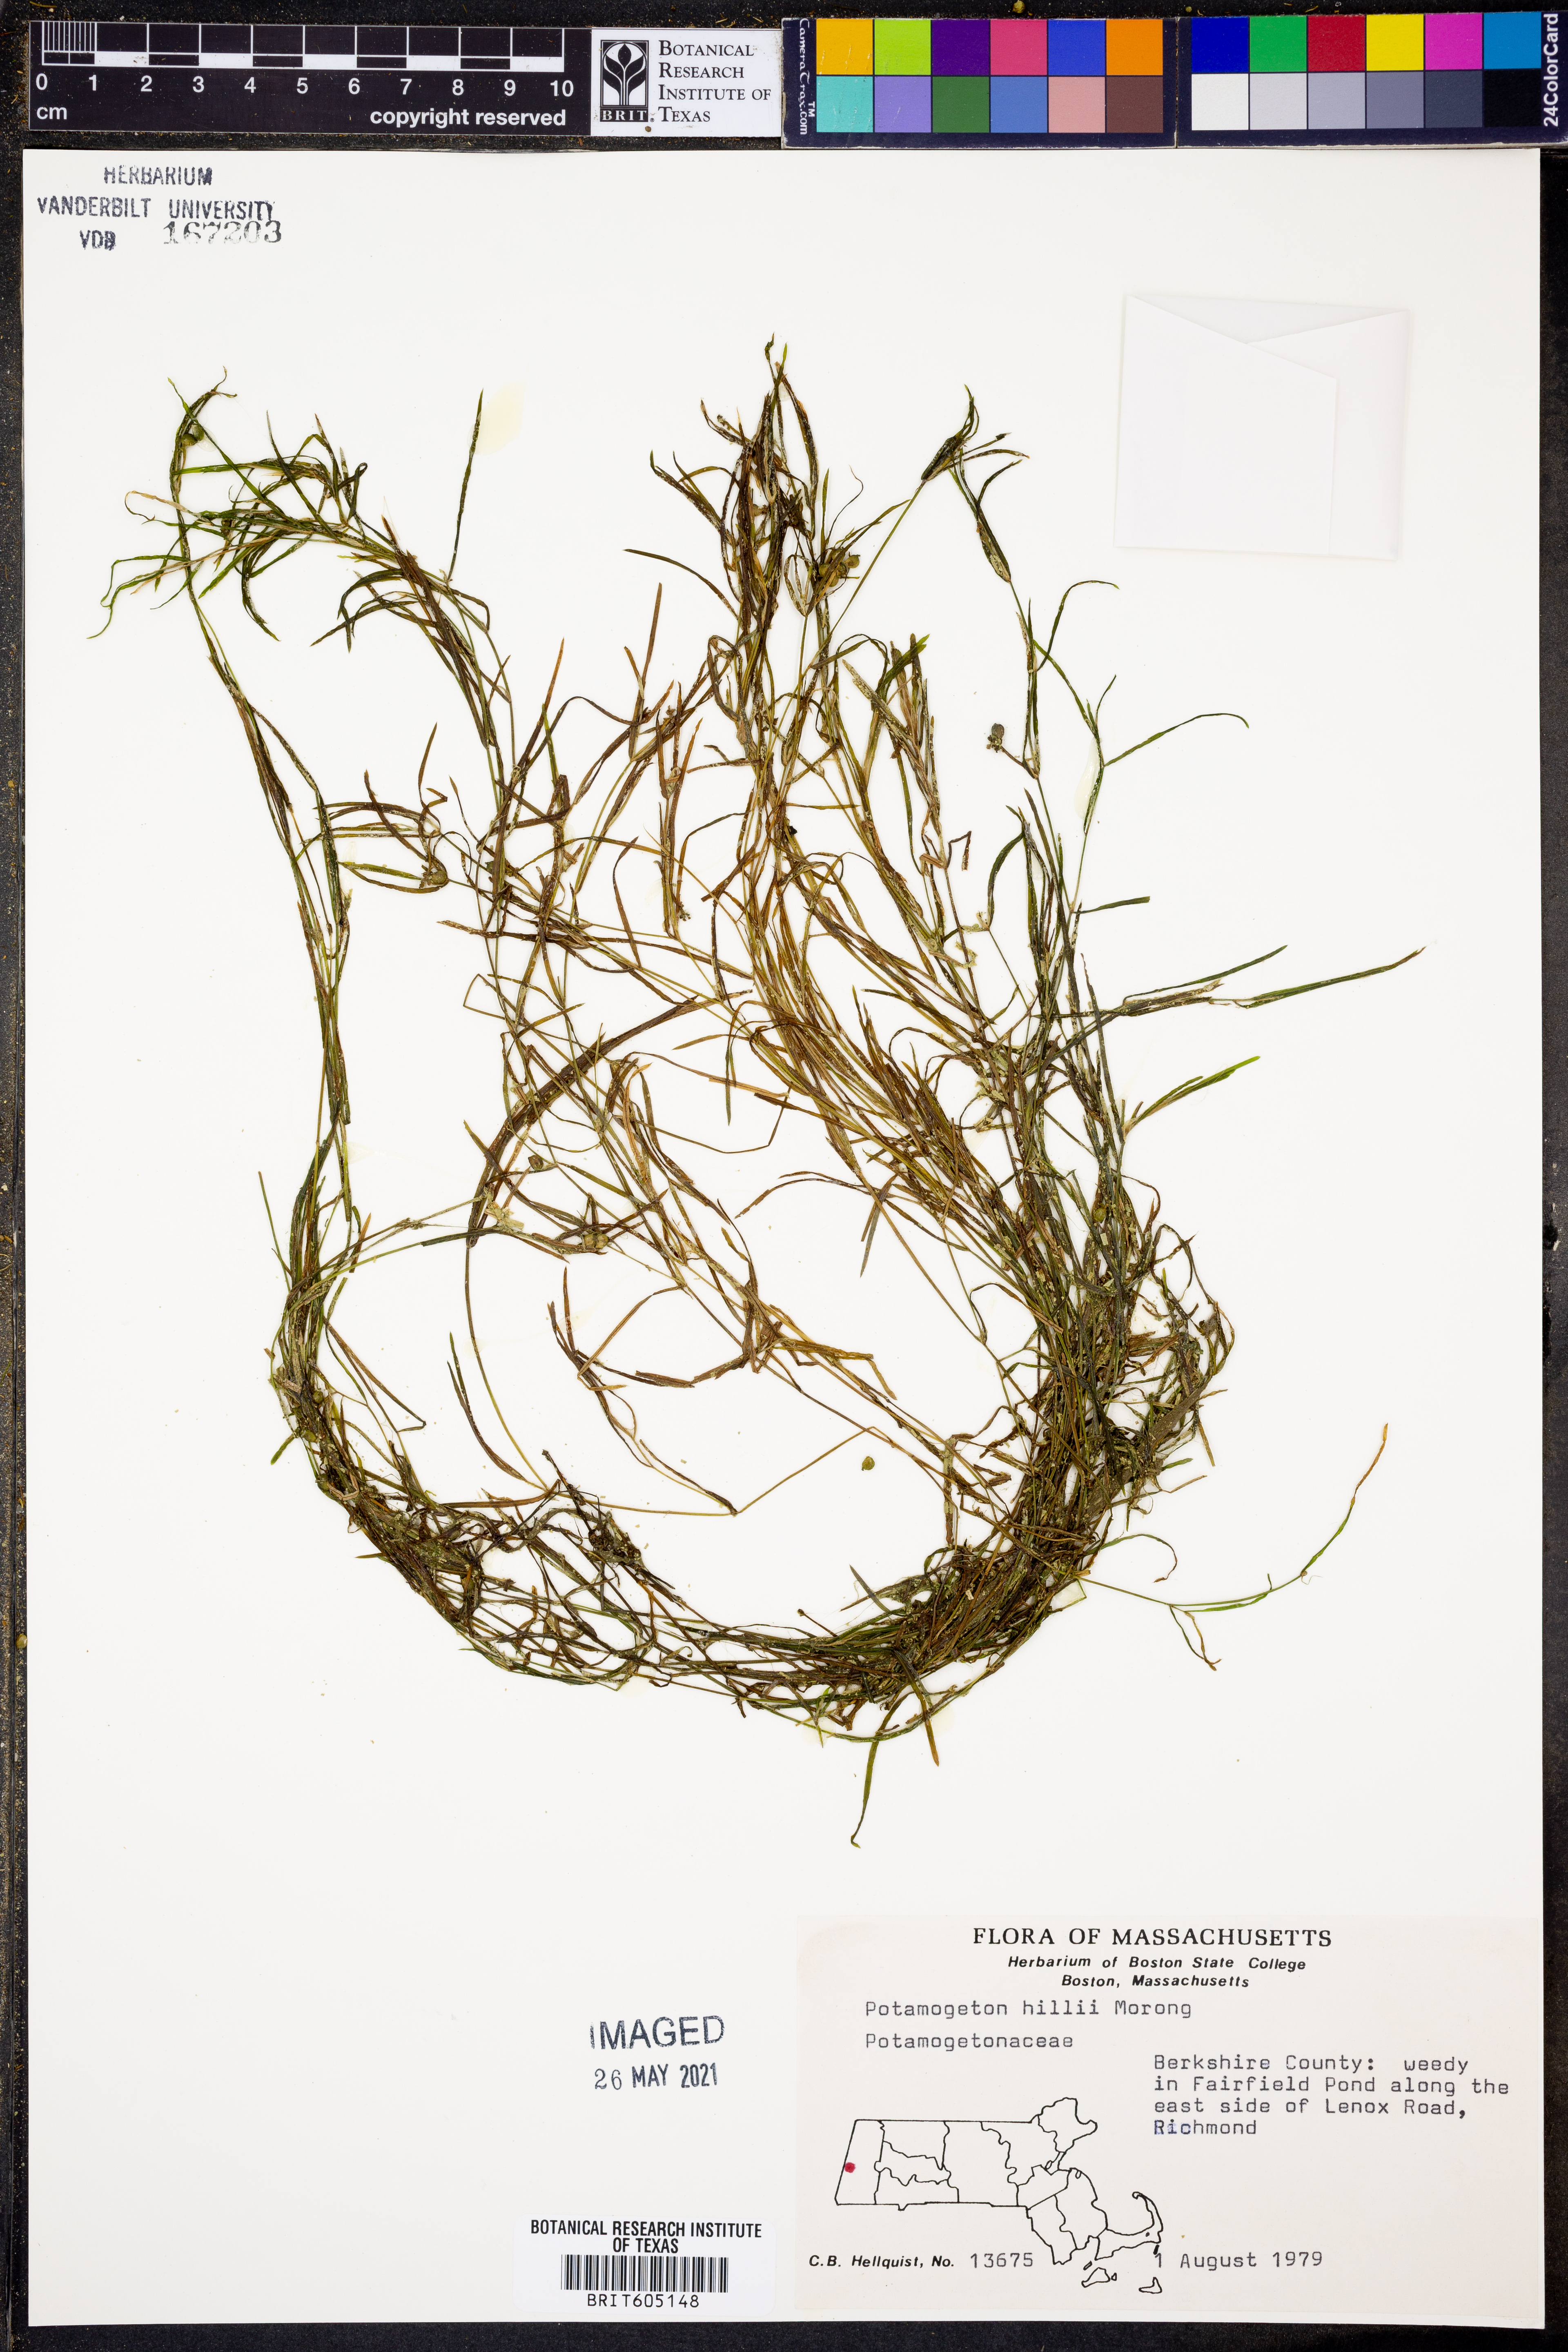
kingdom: Plantae
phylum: Tracheophyta
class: Liliopsida
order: Alismatales
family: Potamogetonaceae
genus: Potamogeton
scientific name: Potamogeton hillii
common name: Hill's pondweed
